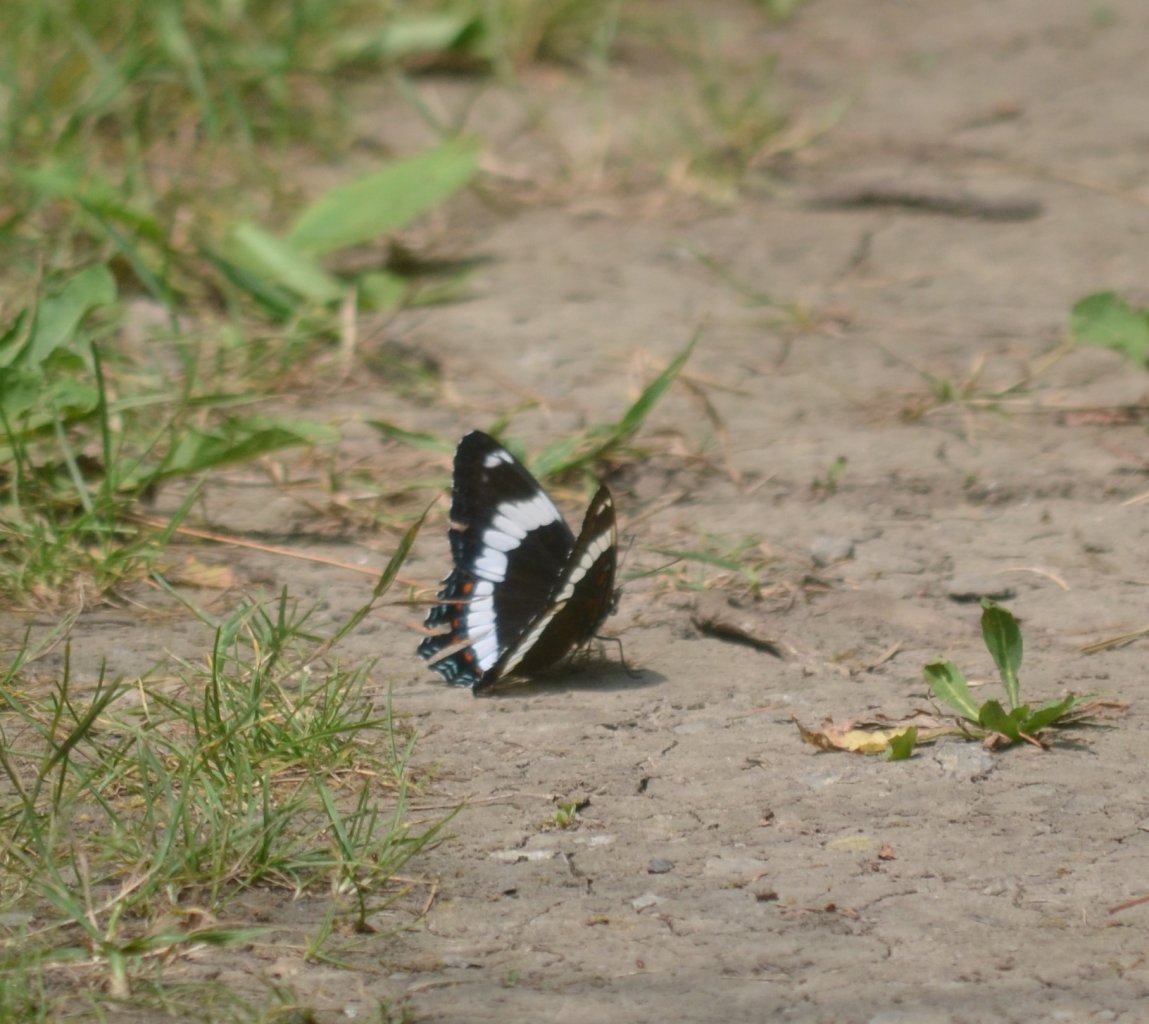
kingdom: Animalia
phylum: Arthropoda
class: Insecta
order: Lepidoptera
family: Nymphalidae
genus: Limenitis
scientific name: Limenitis arthemis
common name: Red-spotted Admiral
